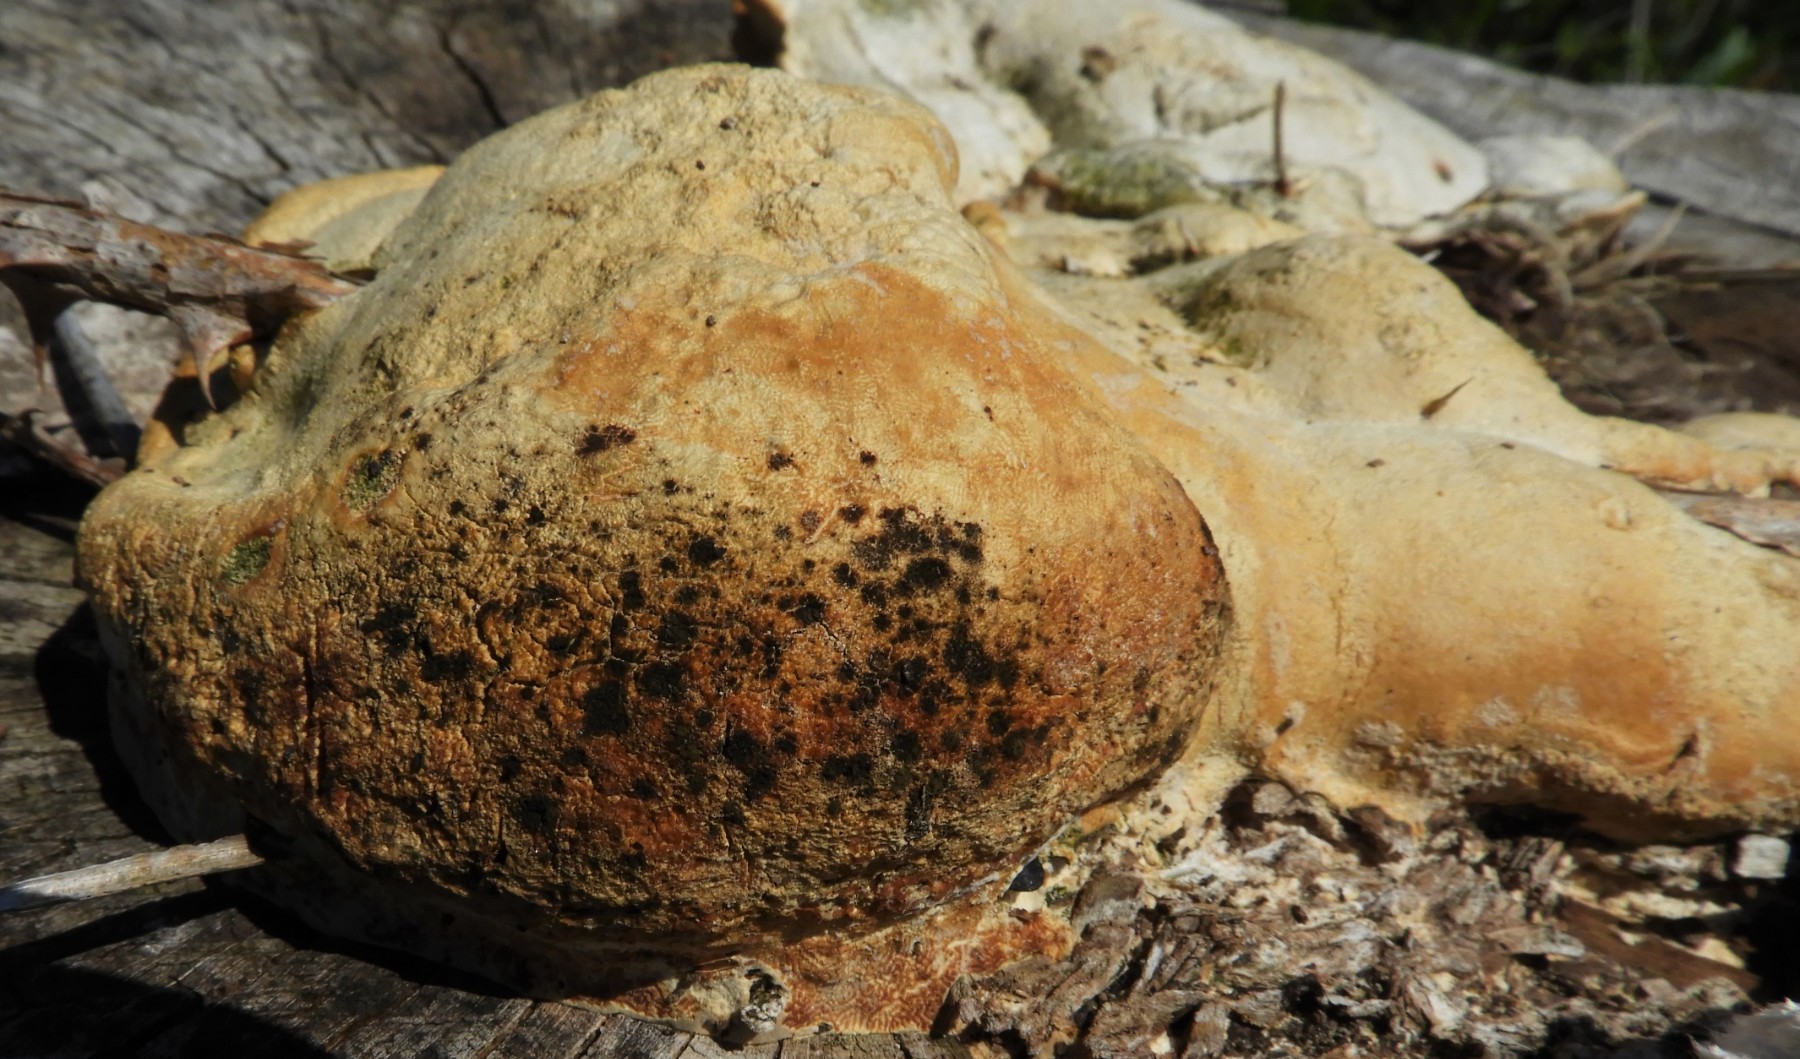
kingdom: Fungi
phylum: Basidiomycota
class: Agaricomycetes
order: Polyporales
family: Polyporaceae
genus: Trametes
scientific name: Trametes gibbosa
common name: puklet læderporesvamp
